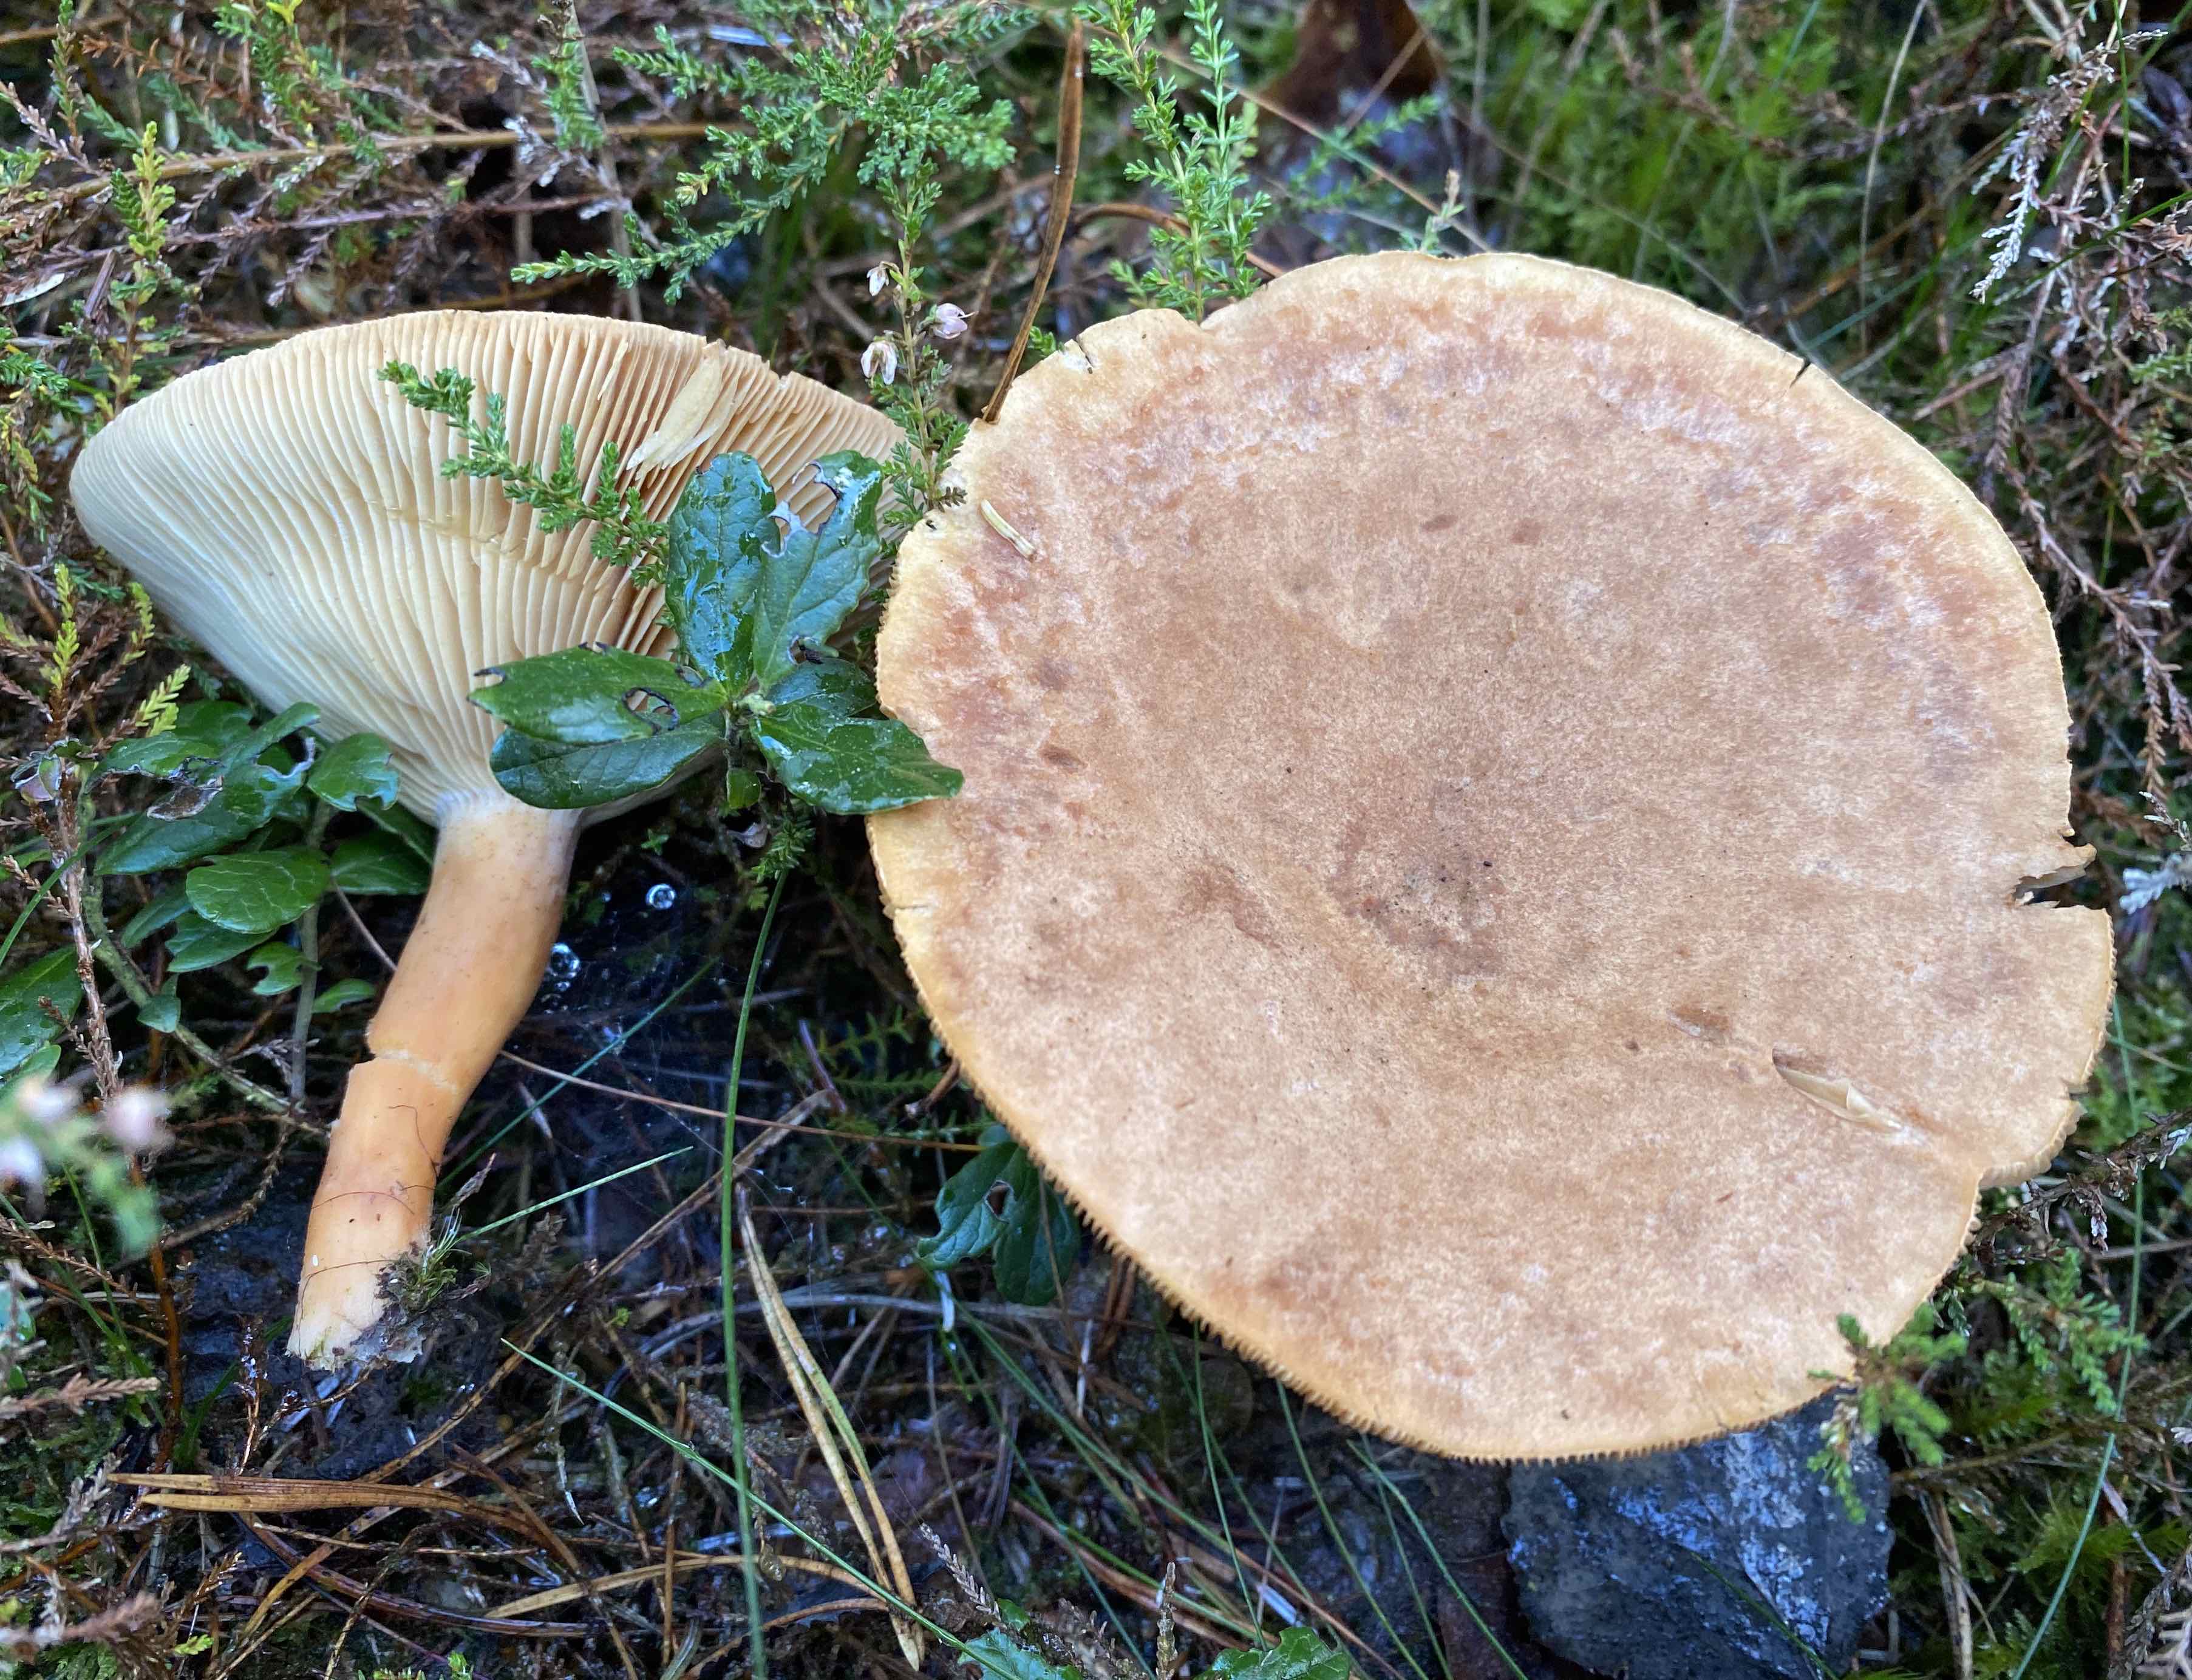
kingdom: Fungi
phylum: Basidiomycota
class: Agaricomycetes
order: Russulales
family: Russulaceae
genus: Lactarius
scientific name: Lactarius helvus
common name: mose-mælkehat
